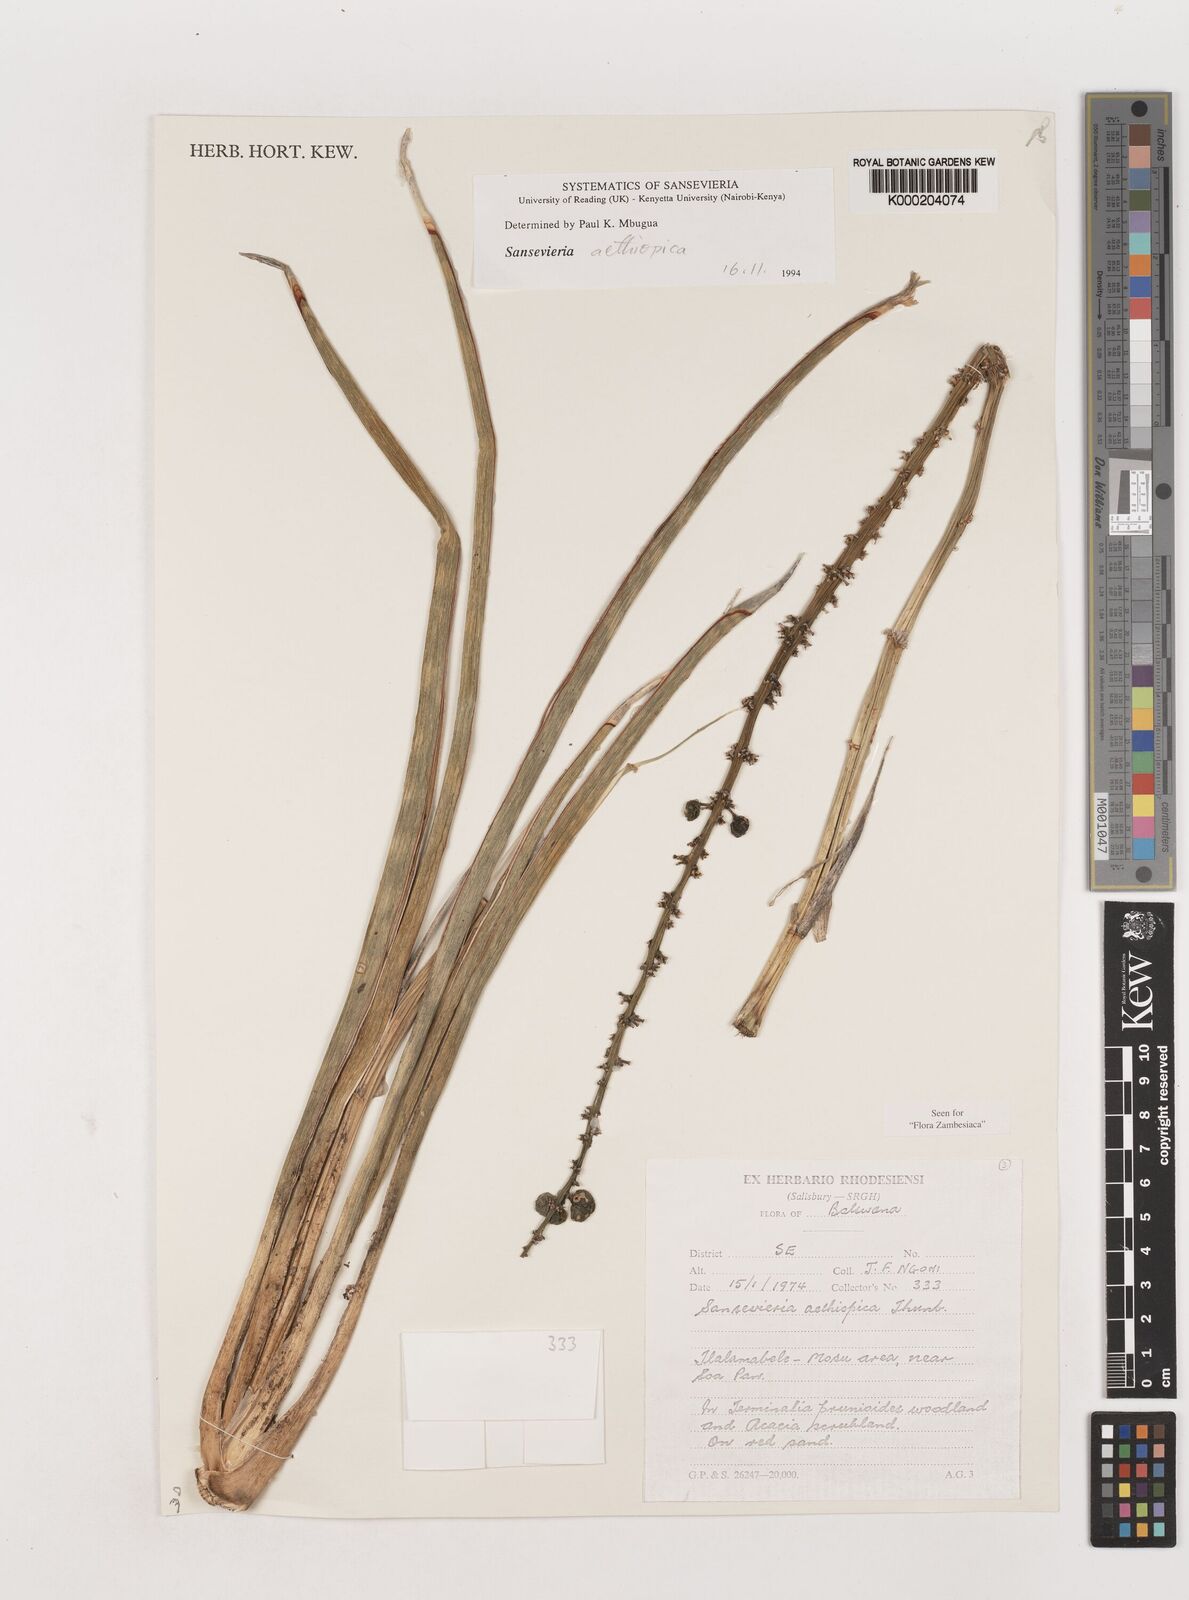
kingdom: Plantae
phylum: Tracheophyta
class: Liliopsida
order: Asparagales
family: Asparagaceae
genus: Dracaena
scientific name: Dracaena aethiopica
